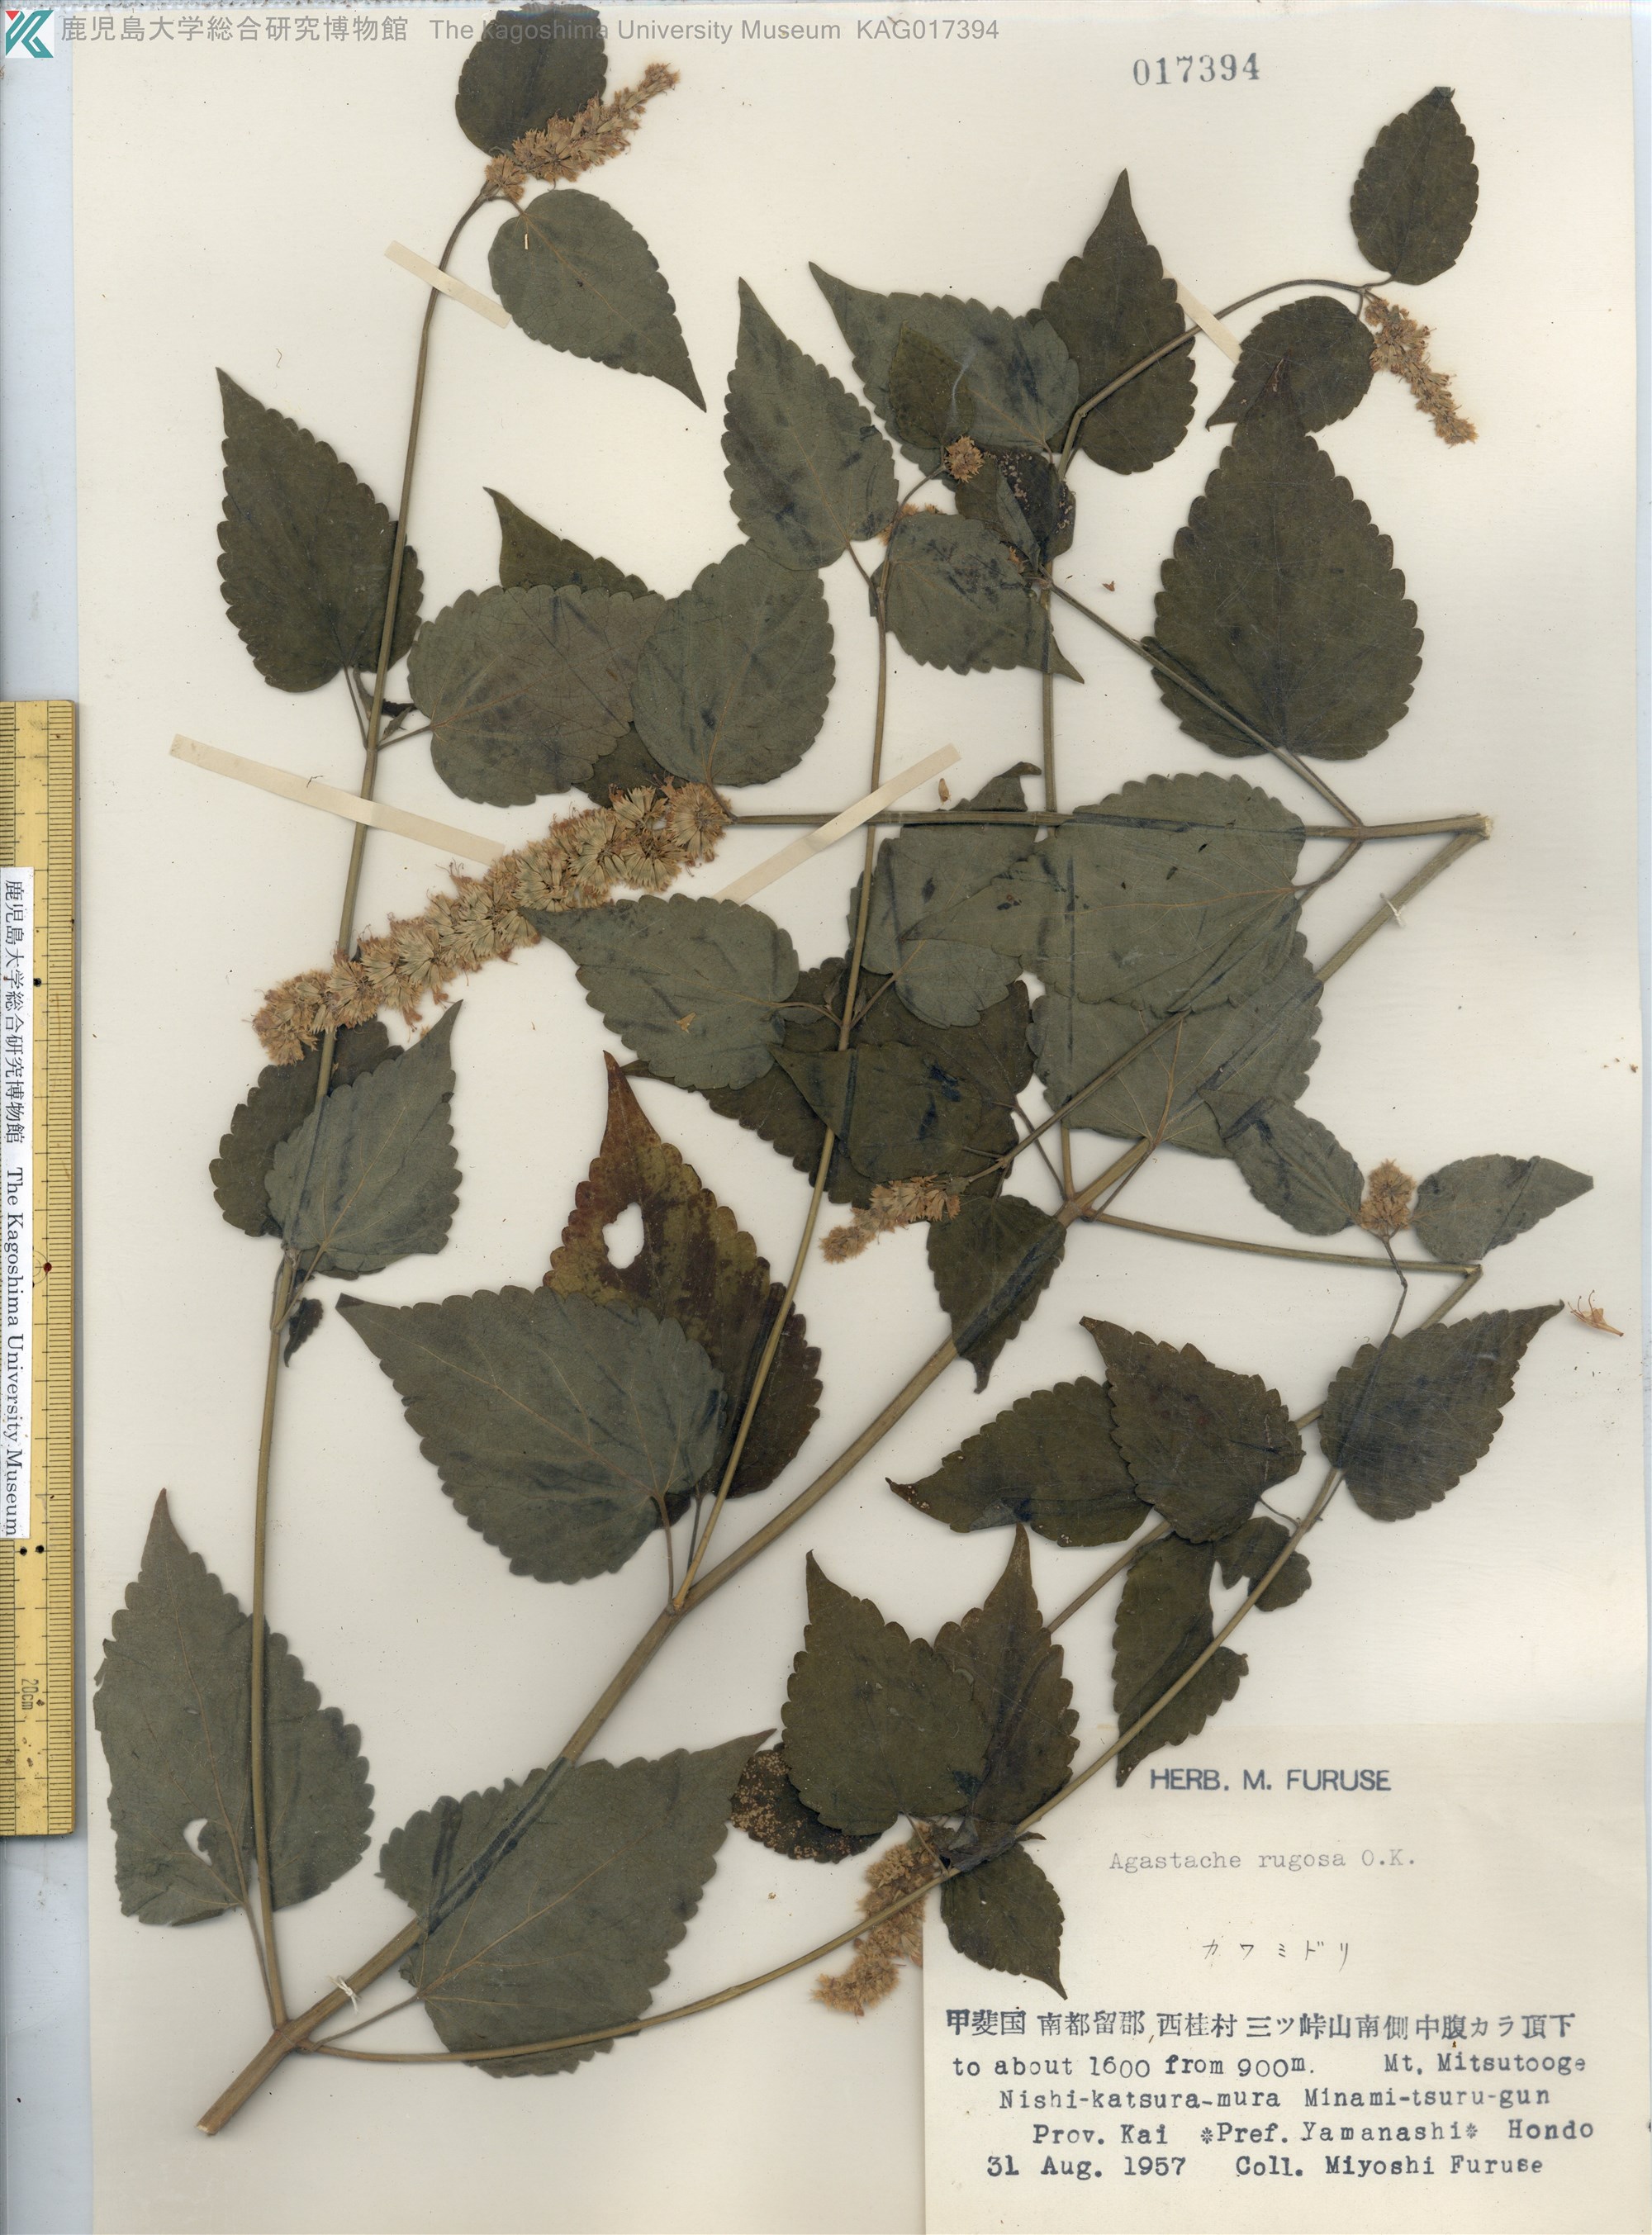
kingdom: Plantae
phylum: Tracheophyta
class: Magnoliopsida
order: Lamiales
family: Lamiaceae
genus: Agastache
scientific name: Agastache rugosa
